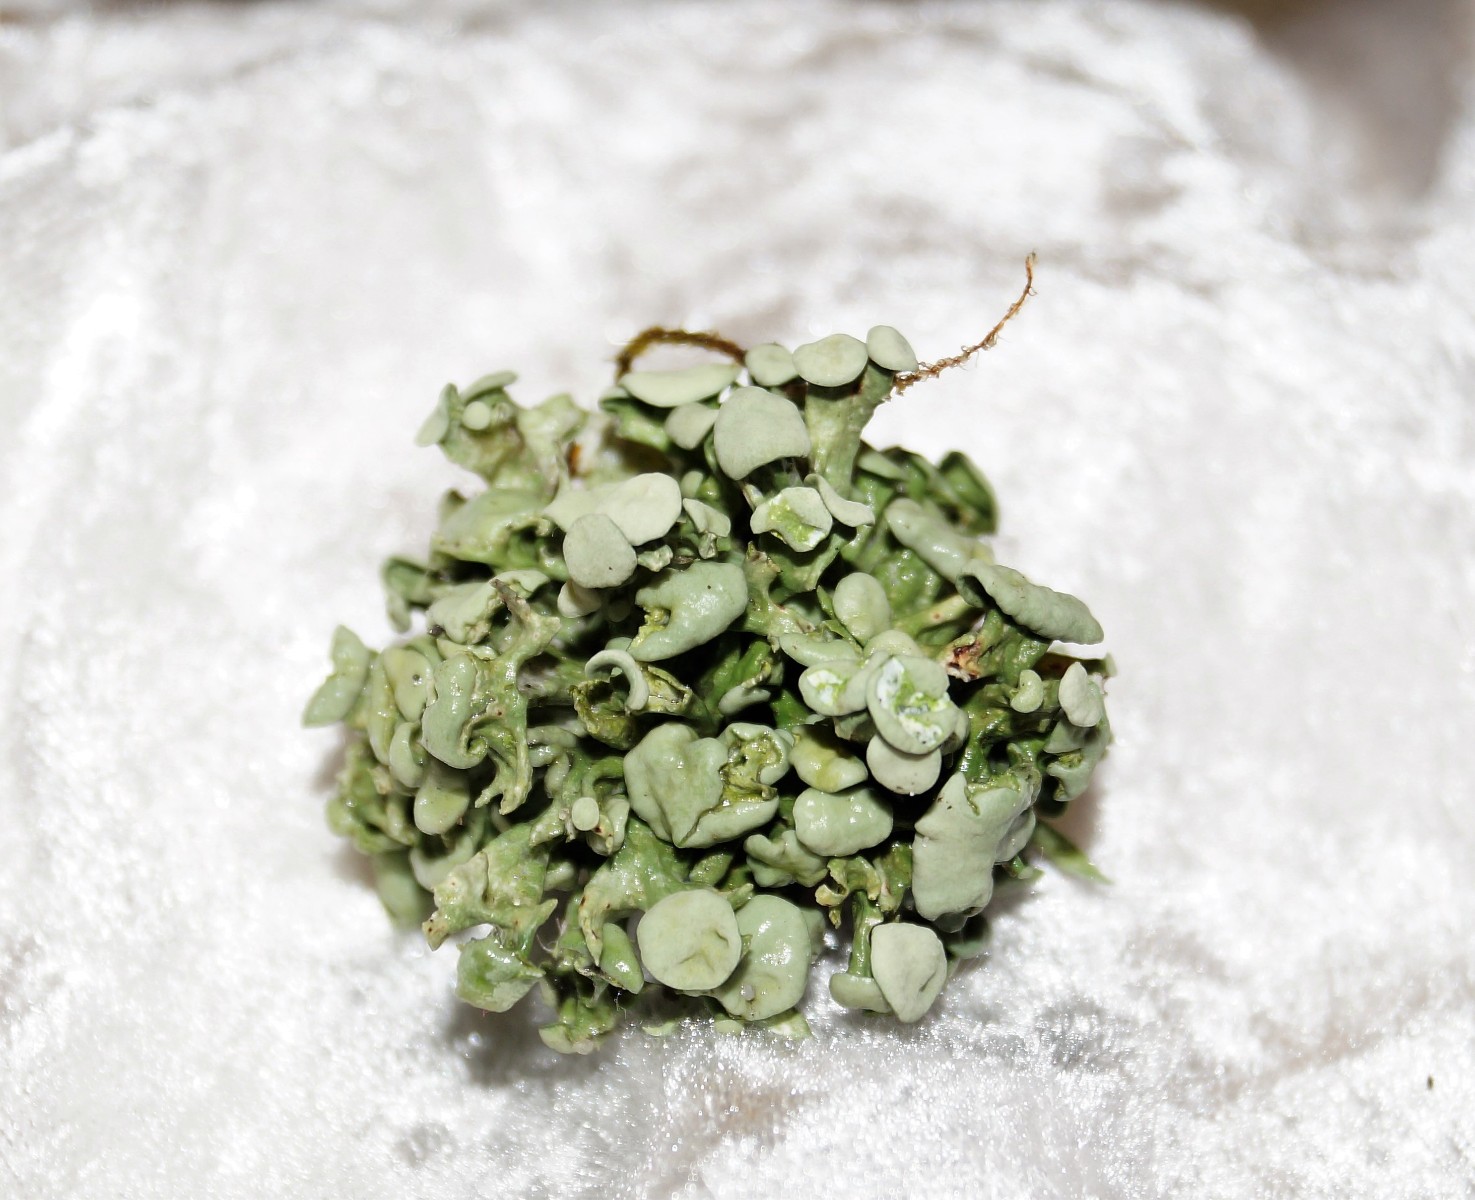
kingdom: Fungi
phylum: Ascomycota
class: Lecanoromycetes
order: Lecanorales
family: Ramalinaceae
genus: Ramalina
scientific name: Ramalina fastigiata
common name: tue-grenlav
